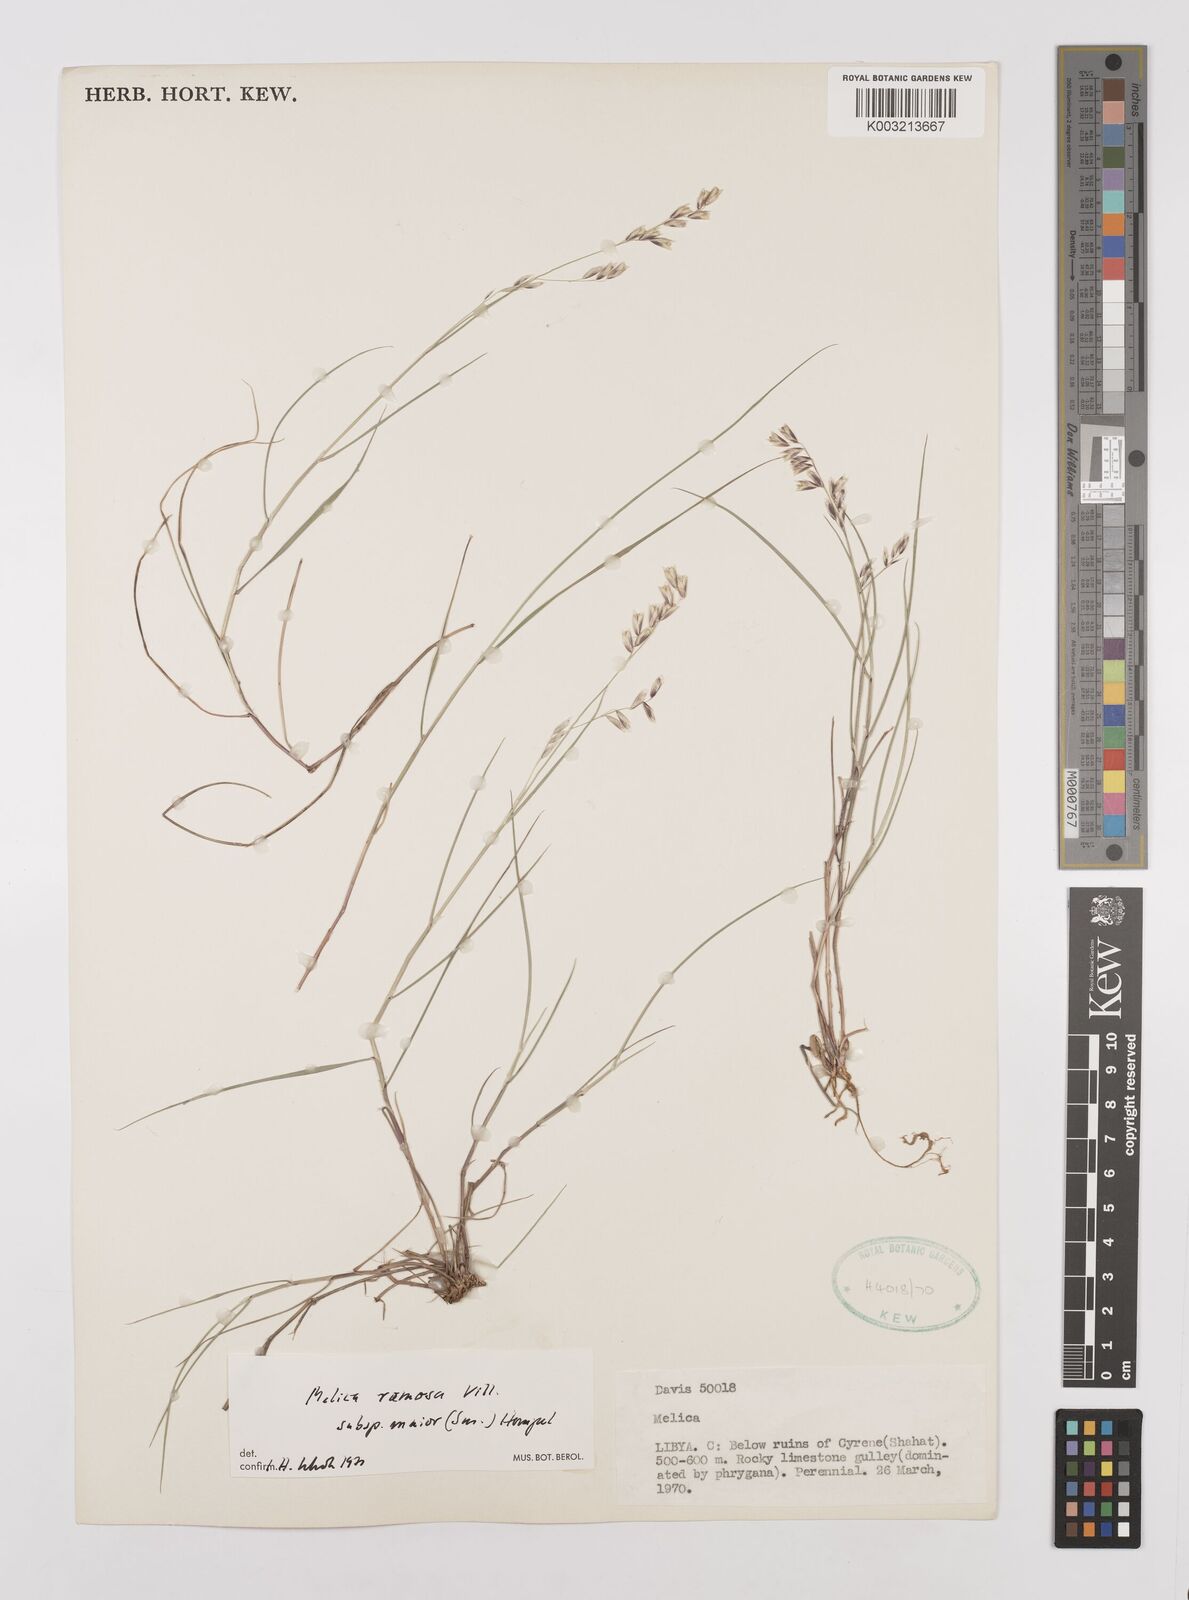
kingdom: Plantae
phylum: Tracheophyta
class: Liliopsida
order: Poales
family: Poaceae
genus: Melica
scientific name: Melica minuta
